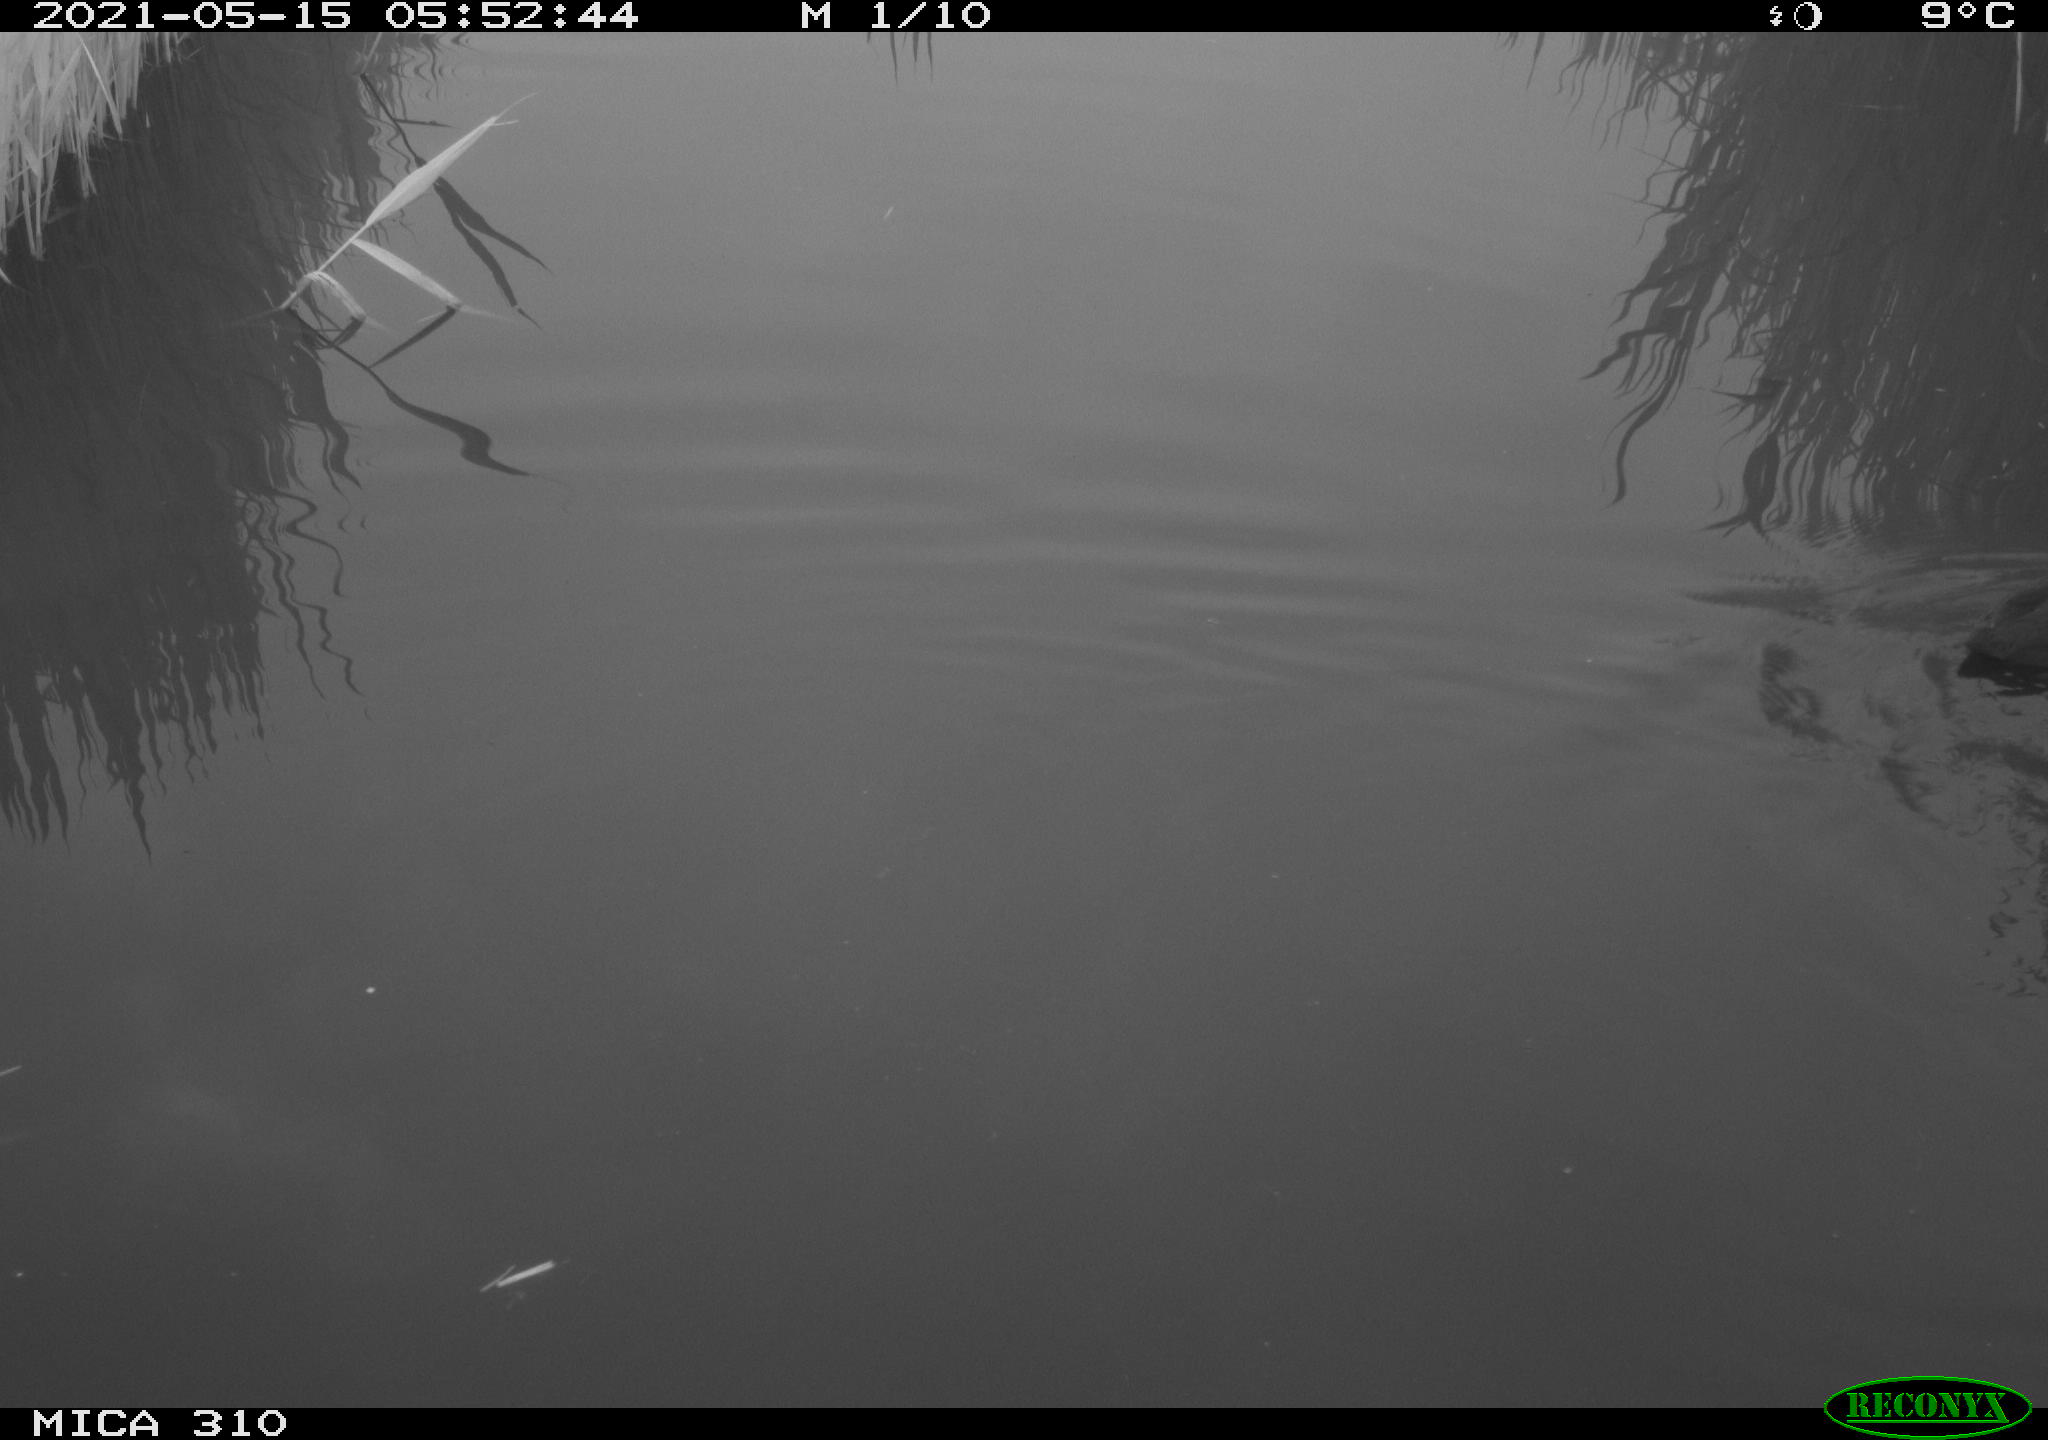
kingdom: Animalia
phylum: Chordata
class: Aves
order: Gruiformes
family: Rallidae
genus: Fulica
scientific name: Fulica atra
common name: Eurasian coot
